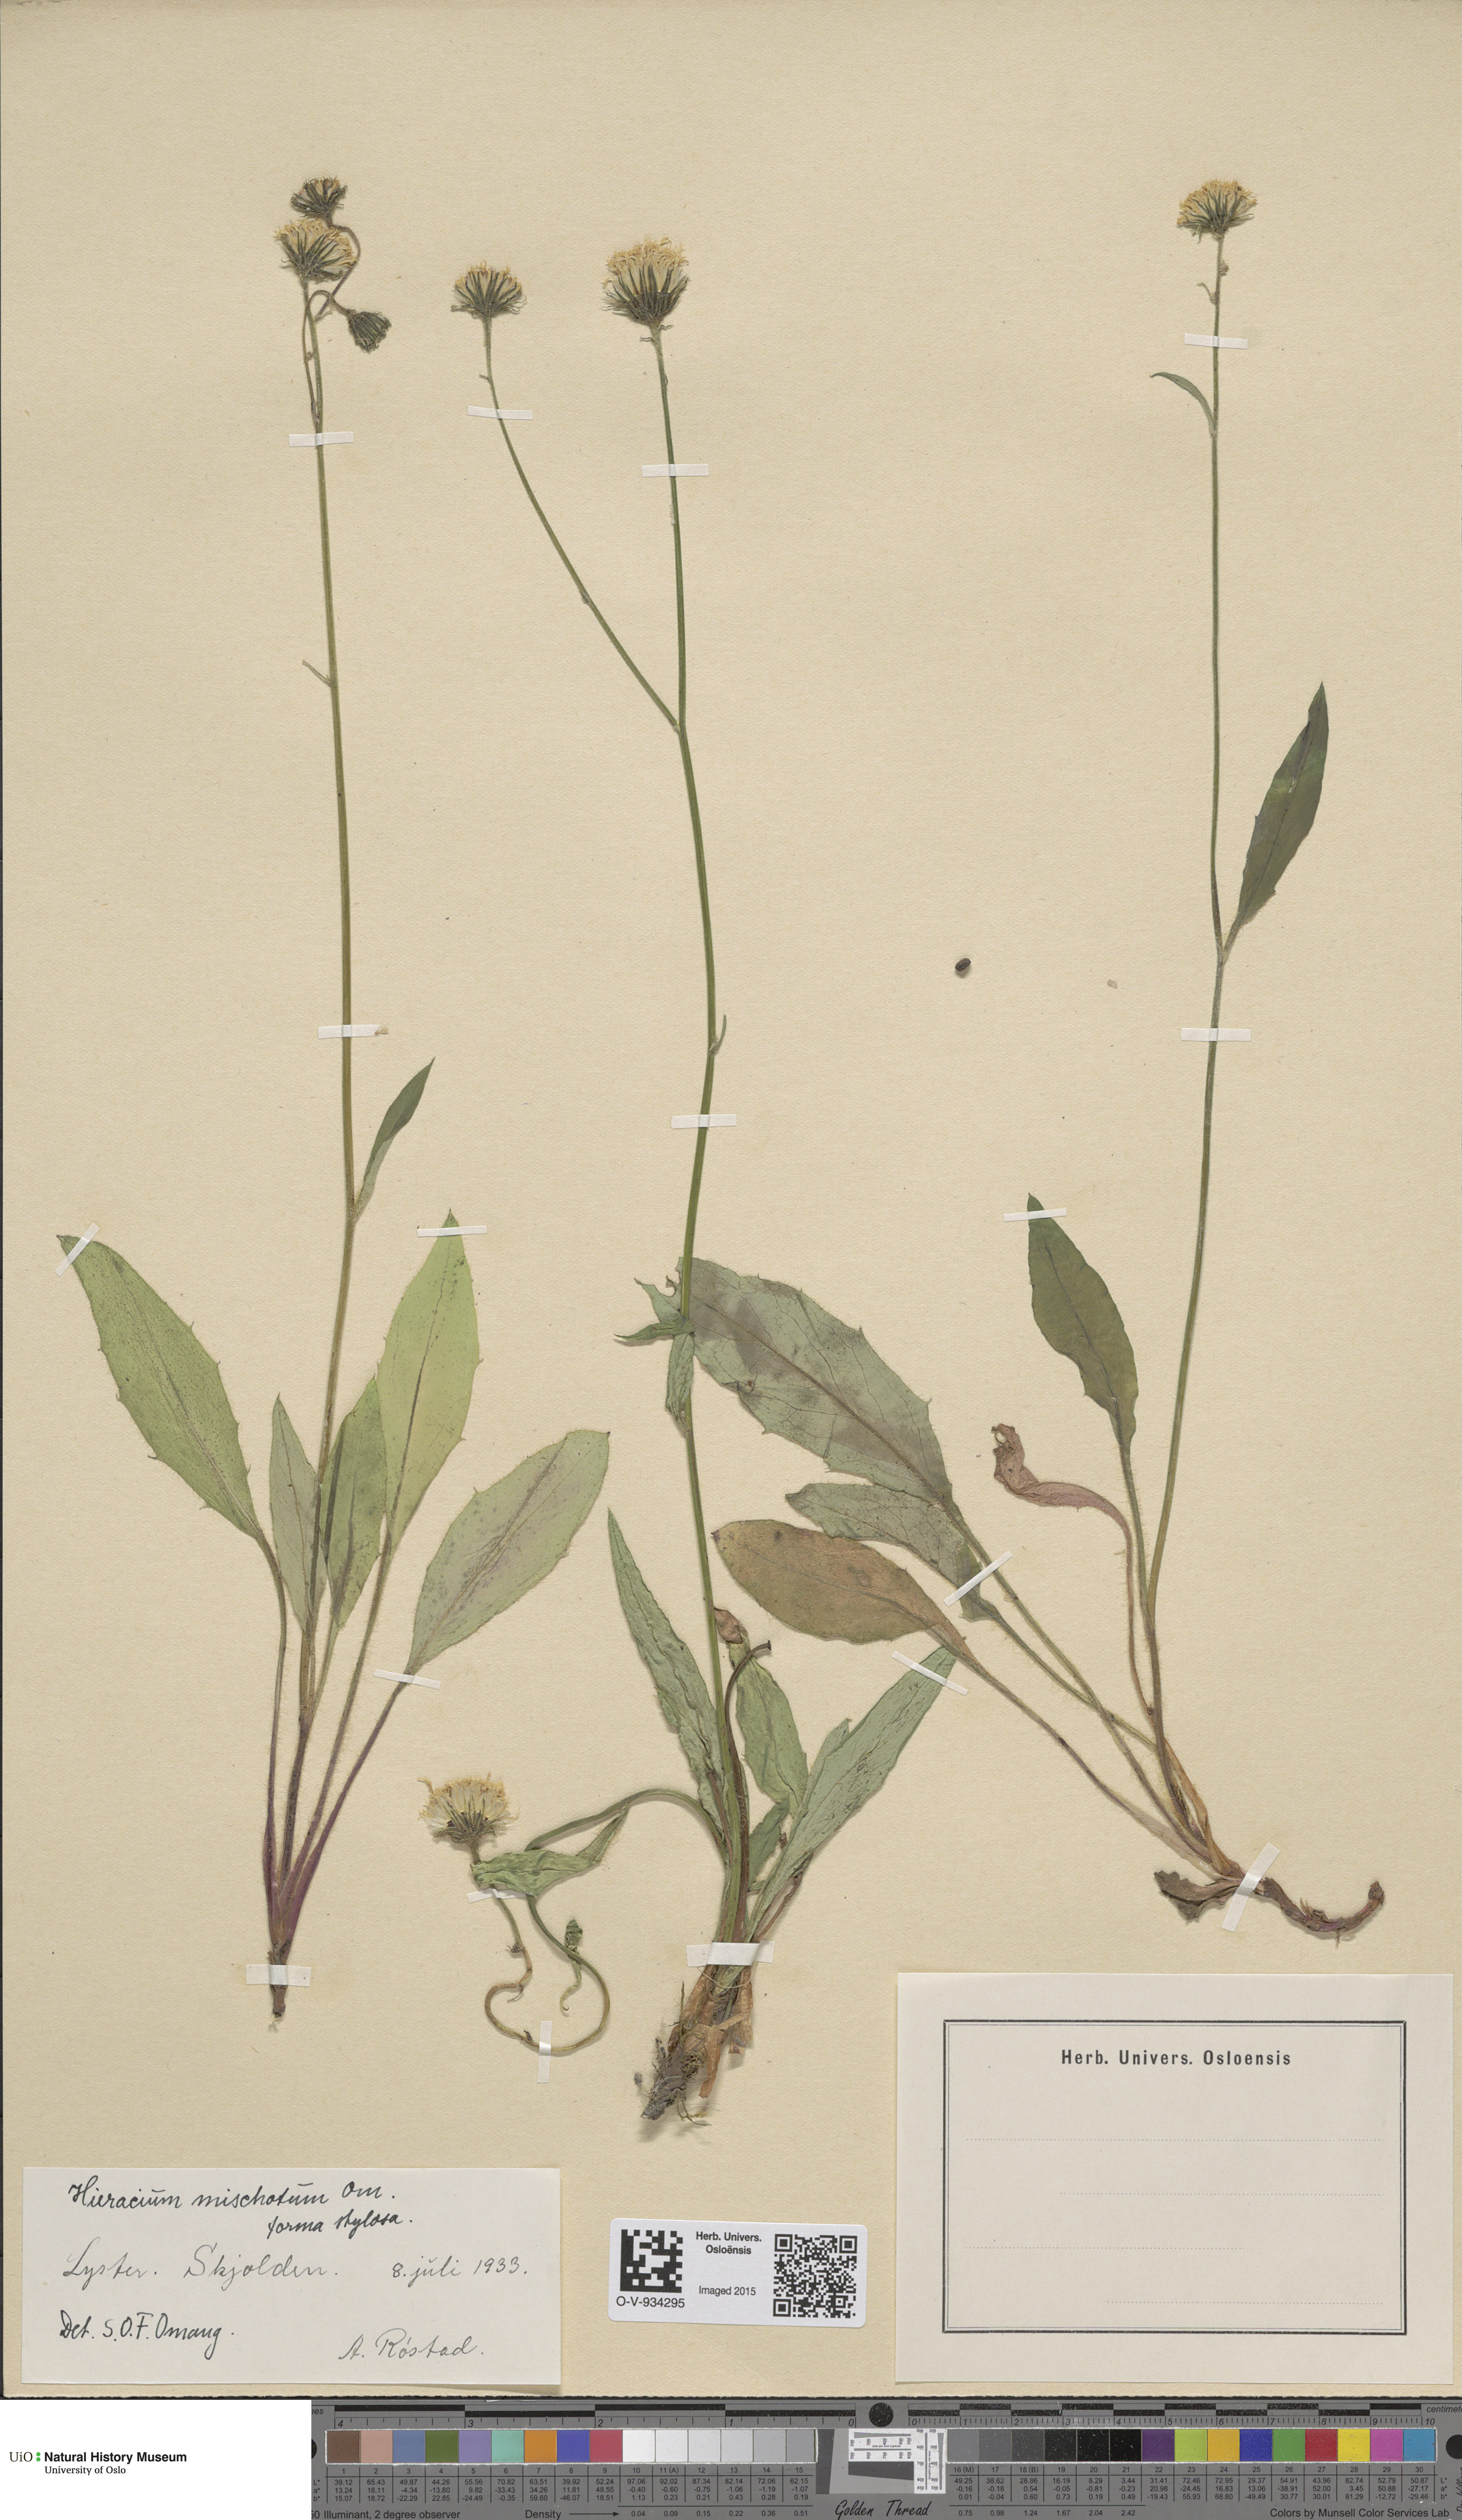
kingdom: Plantae
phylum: Tracheophyta
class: Magnoliopsida
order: Asterales
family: Asteraceae
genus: Hieracium
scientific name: Hieracium
